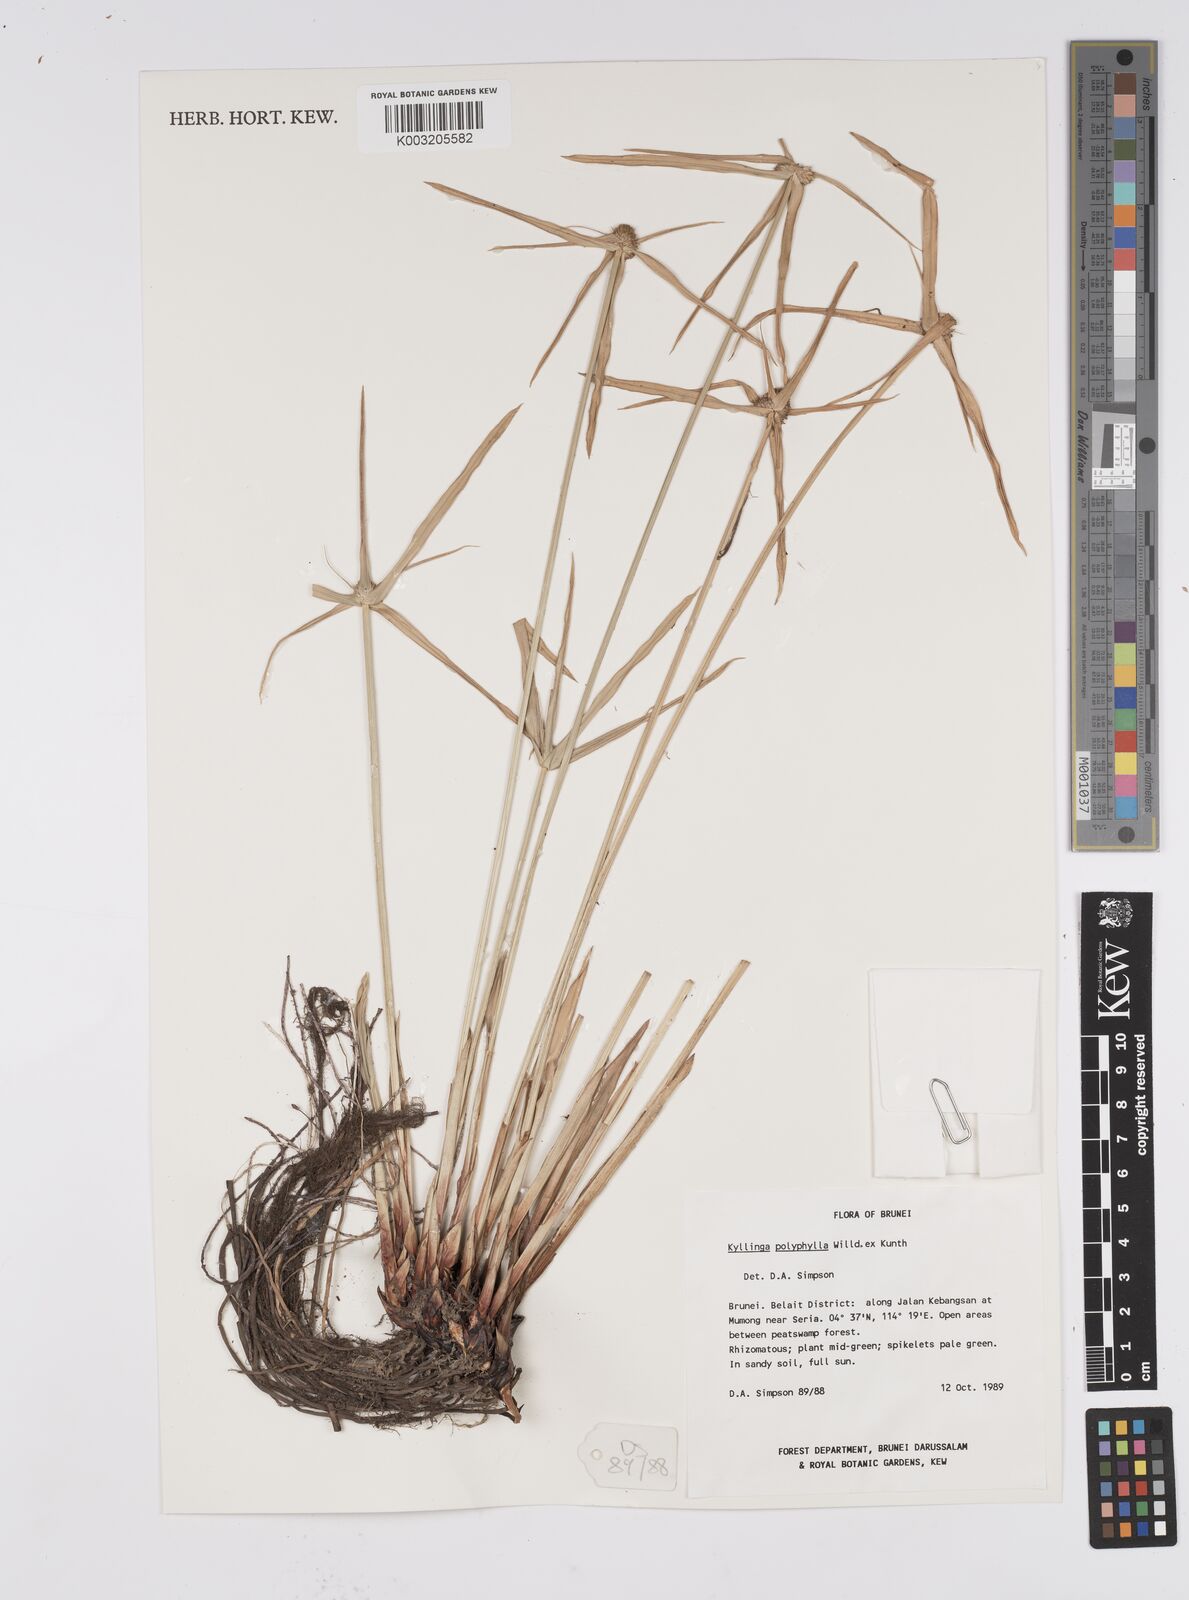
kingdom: Plantae
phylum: Tracheophyta
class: Liliopsida
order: Poales
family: Cyperaceae
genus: Cyperus
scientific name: Cyperus
